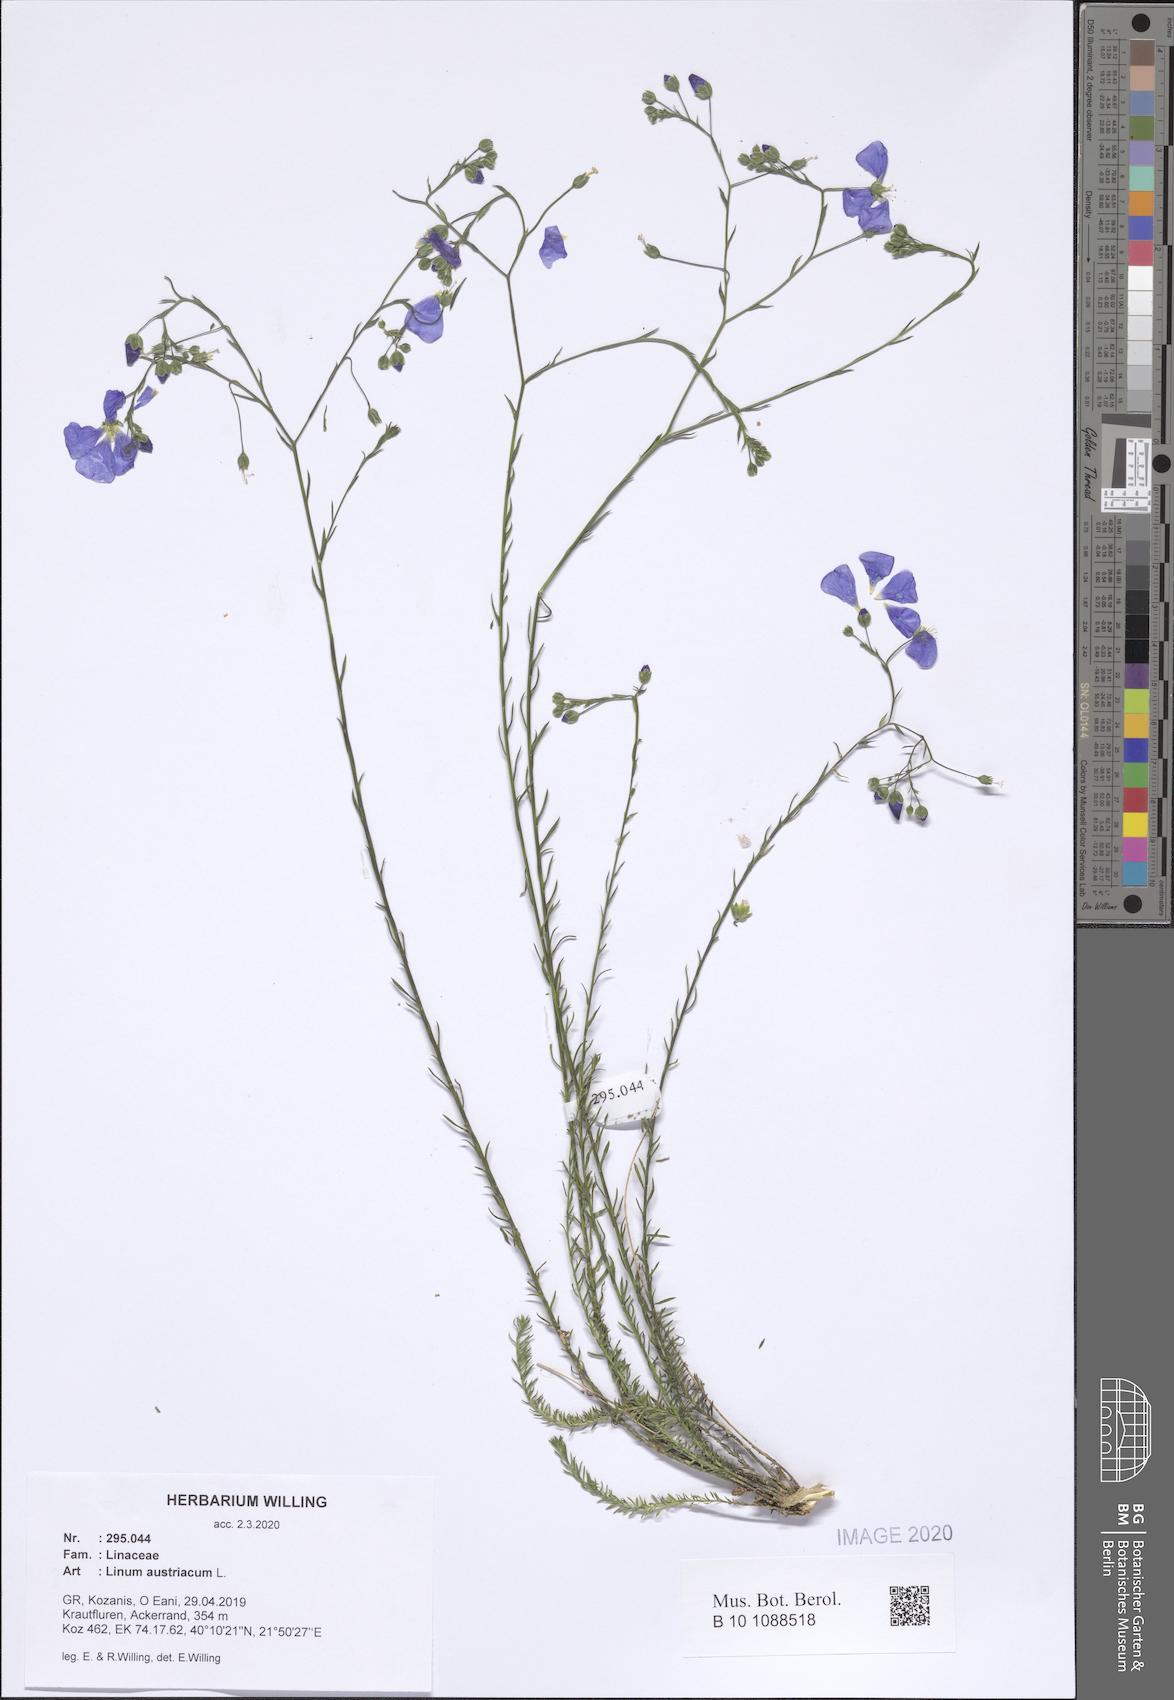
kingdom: Plantae
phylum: Tracheophyta
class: Magnoliopsida
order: Malpighiales
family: Linaceae
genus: Linum
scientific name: Linum austriacum
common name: Austrian flax
